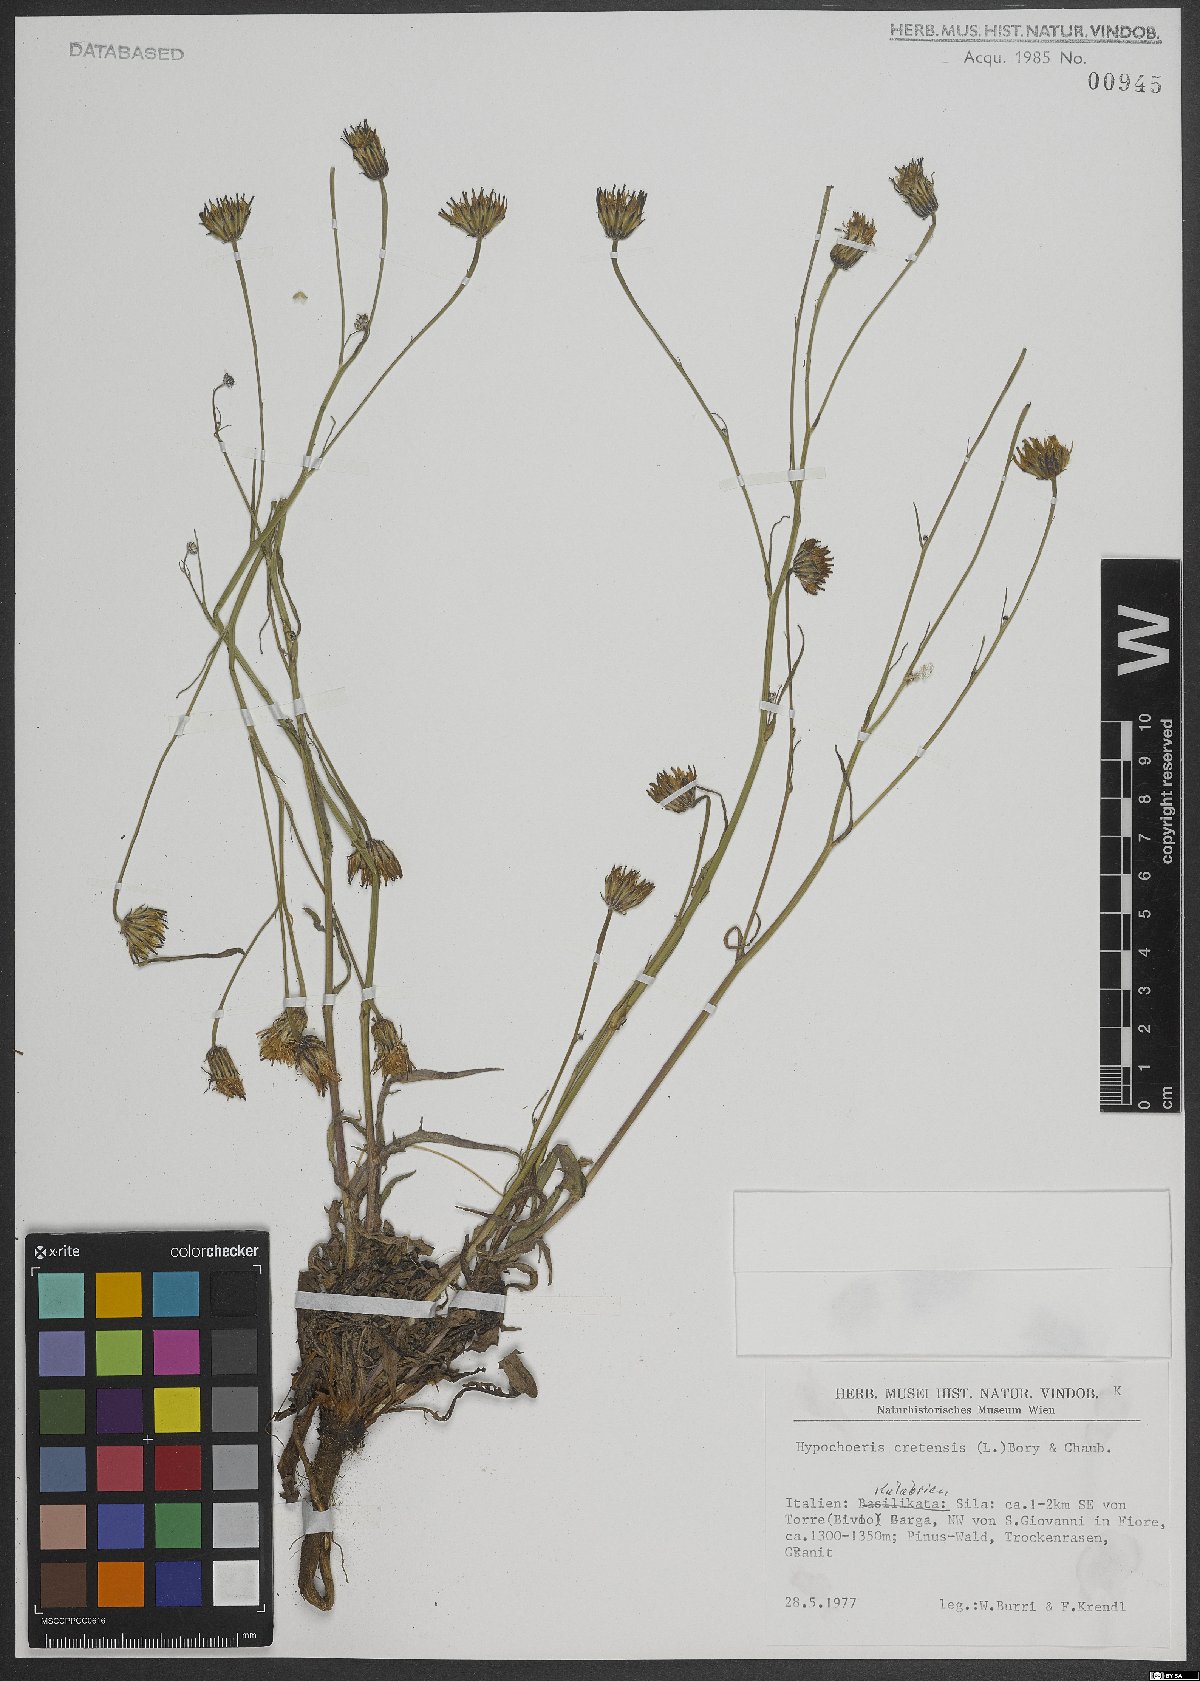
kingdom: Plantae
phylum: Tracheophyta
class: Magnoliopsida
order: Asterales
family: Asteraceae
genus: Hypochaeris
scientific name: Hypochaeris cretensis
